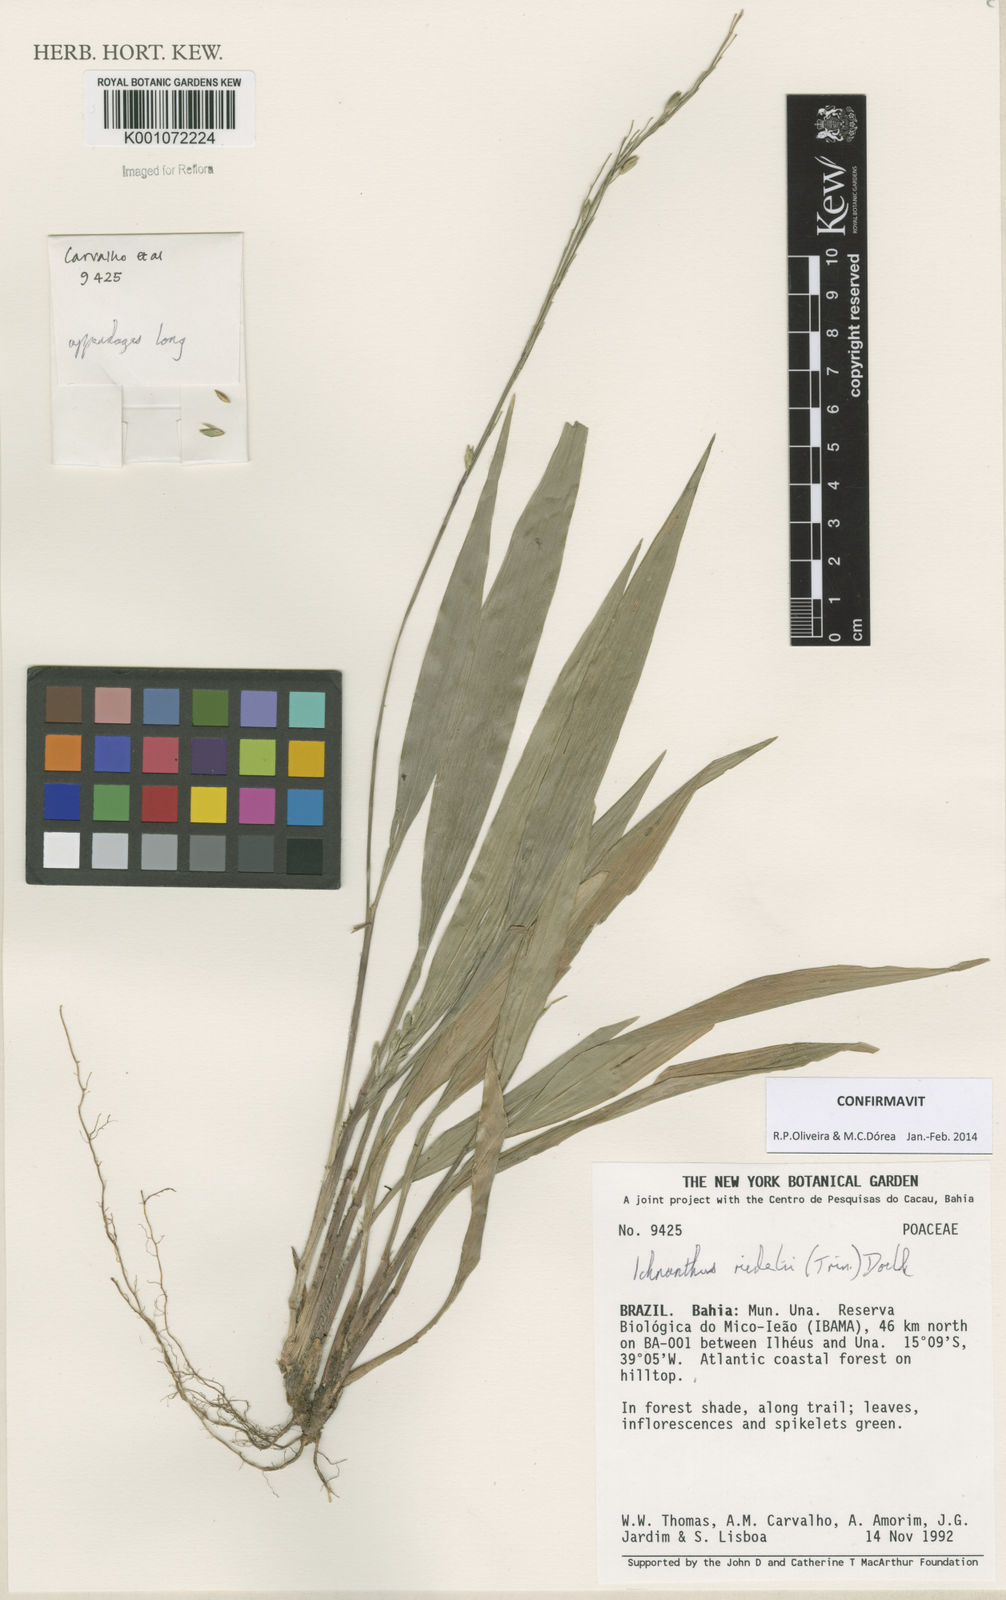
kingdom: Plantae
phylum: Tracheophyta
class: Liliopsida
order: Poales
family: Poaceae
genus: Ichnanthus
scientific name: Ichnanthus
